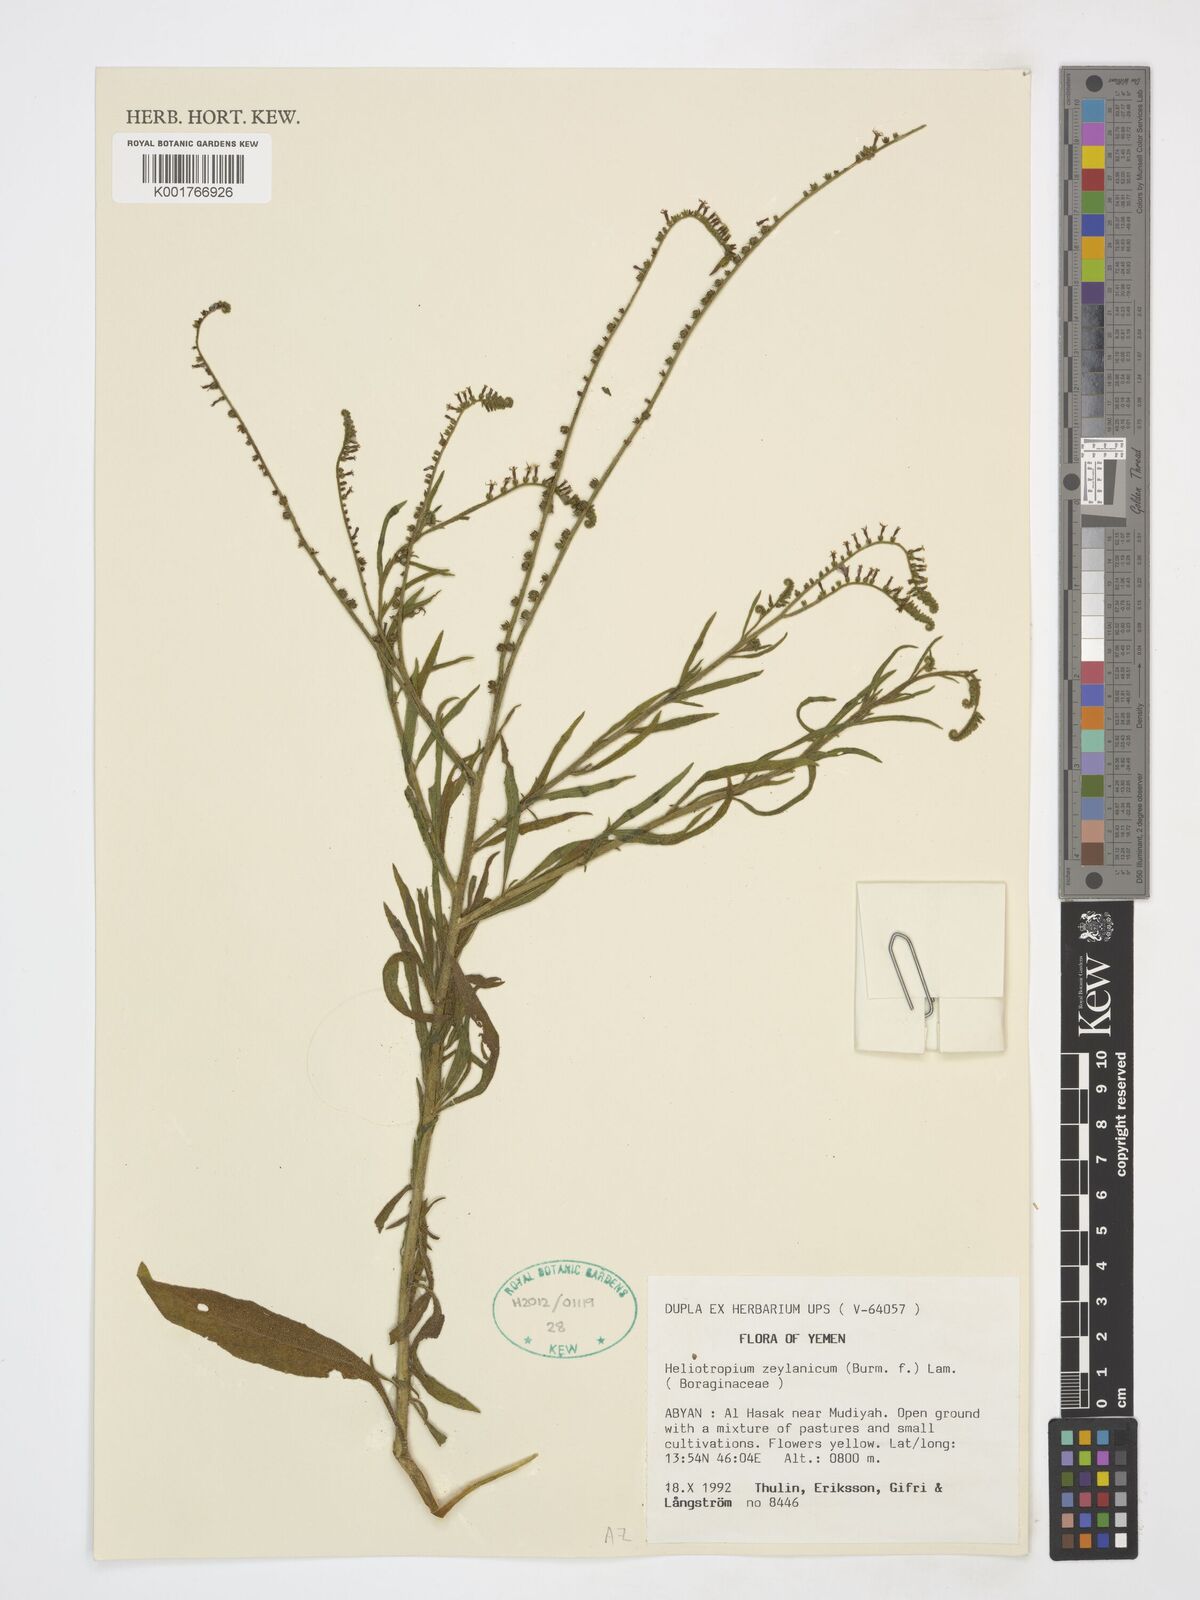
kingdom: Plantae
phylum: Tracheophyta
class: Magnoliopsida
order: Boraginales
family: Heliotropiaceae
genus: Heliotropium
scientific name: Heliotropium zeylanicum
